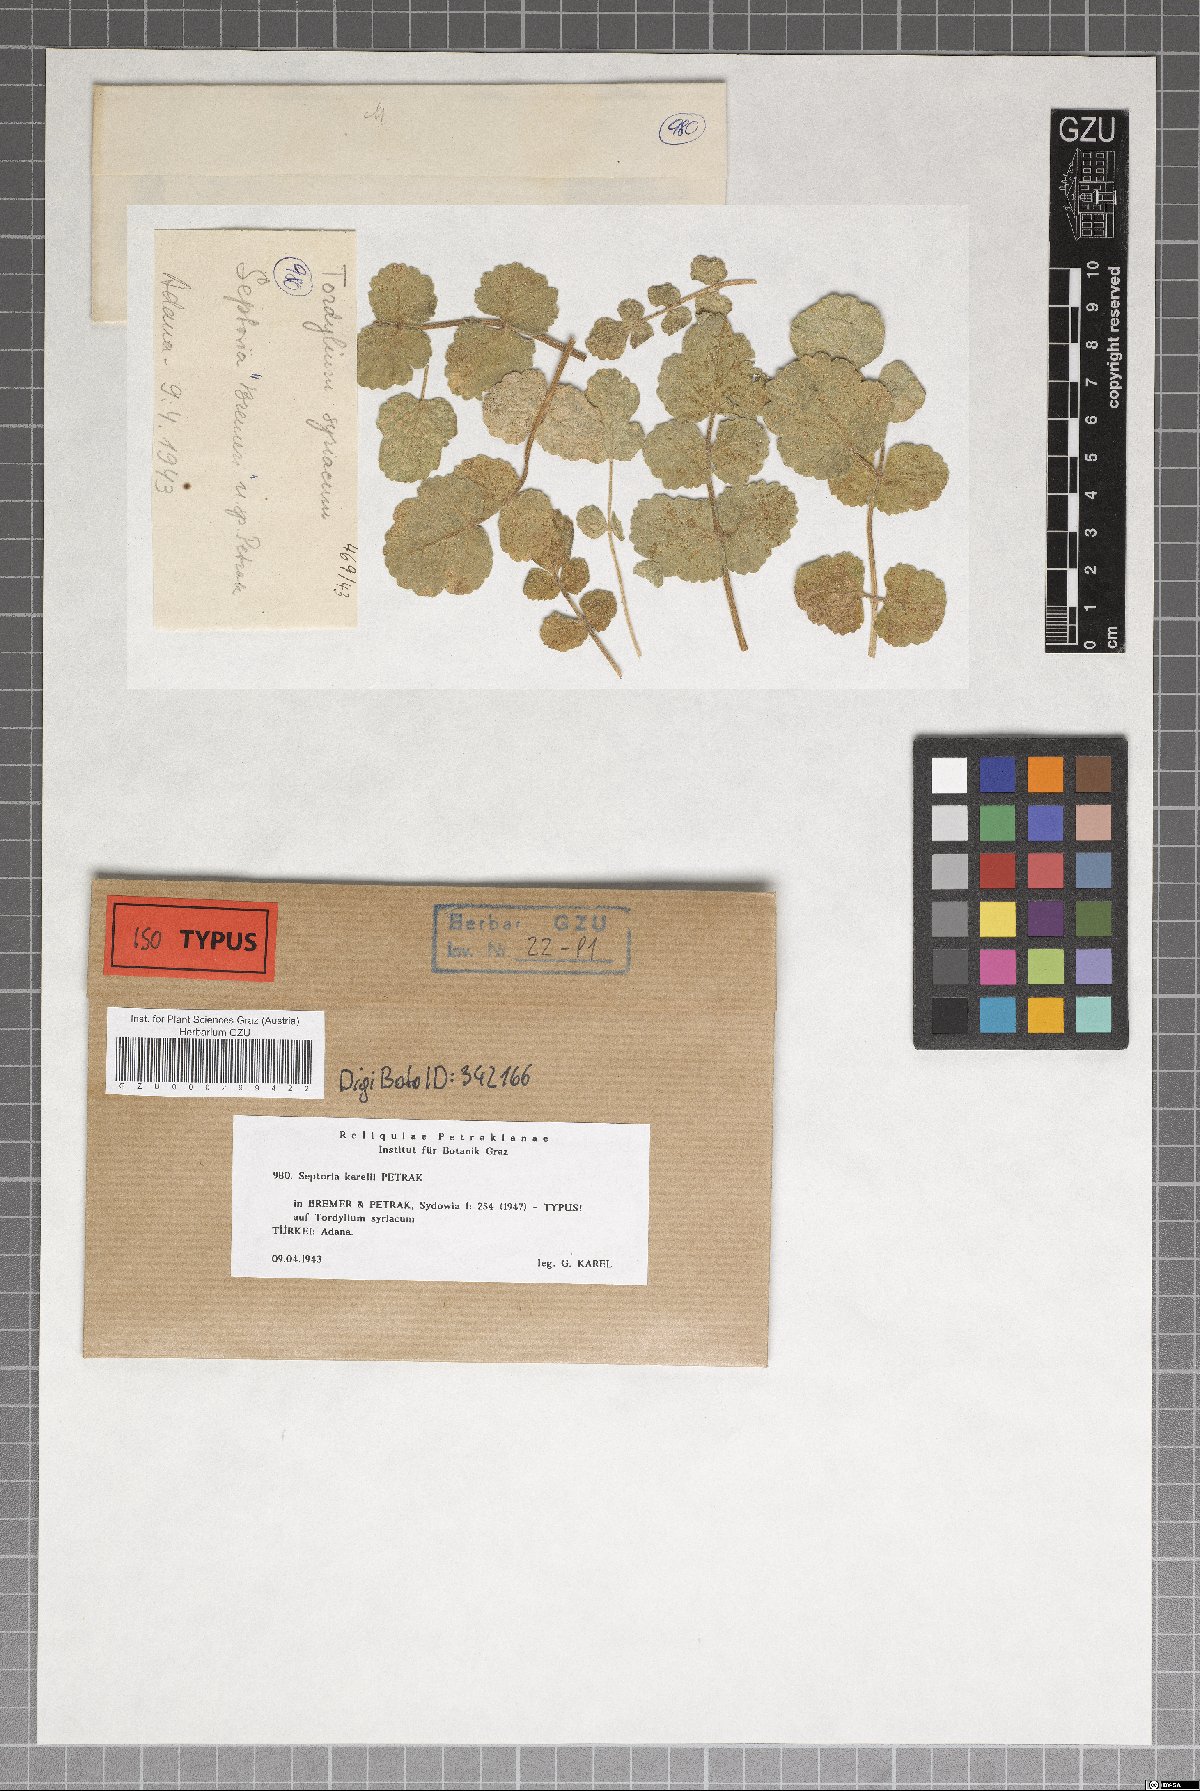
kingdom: Fungi
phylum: Ascomycota
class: Dothideomycetes
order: Mycosphaerellales
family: Mycosphaerellaceae
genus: Septoria
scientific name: Septoria
